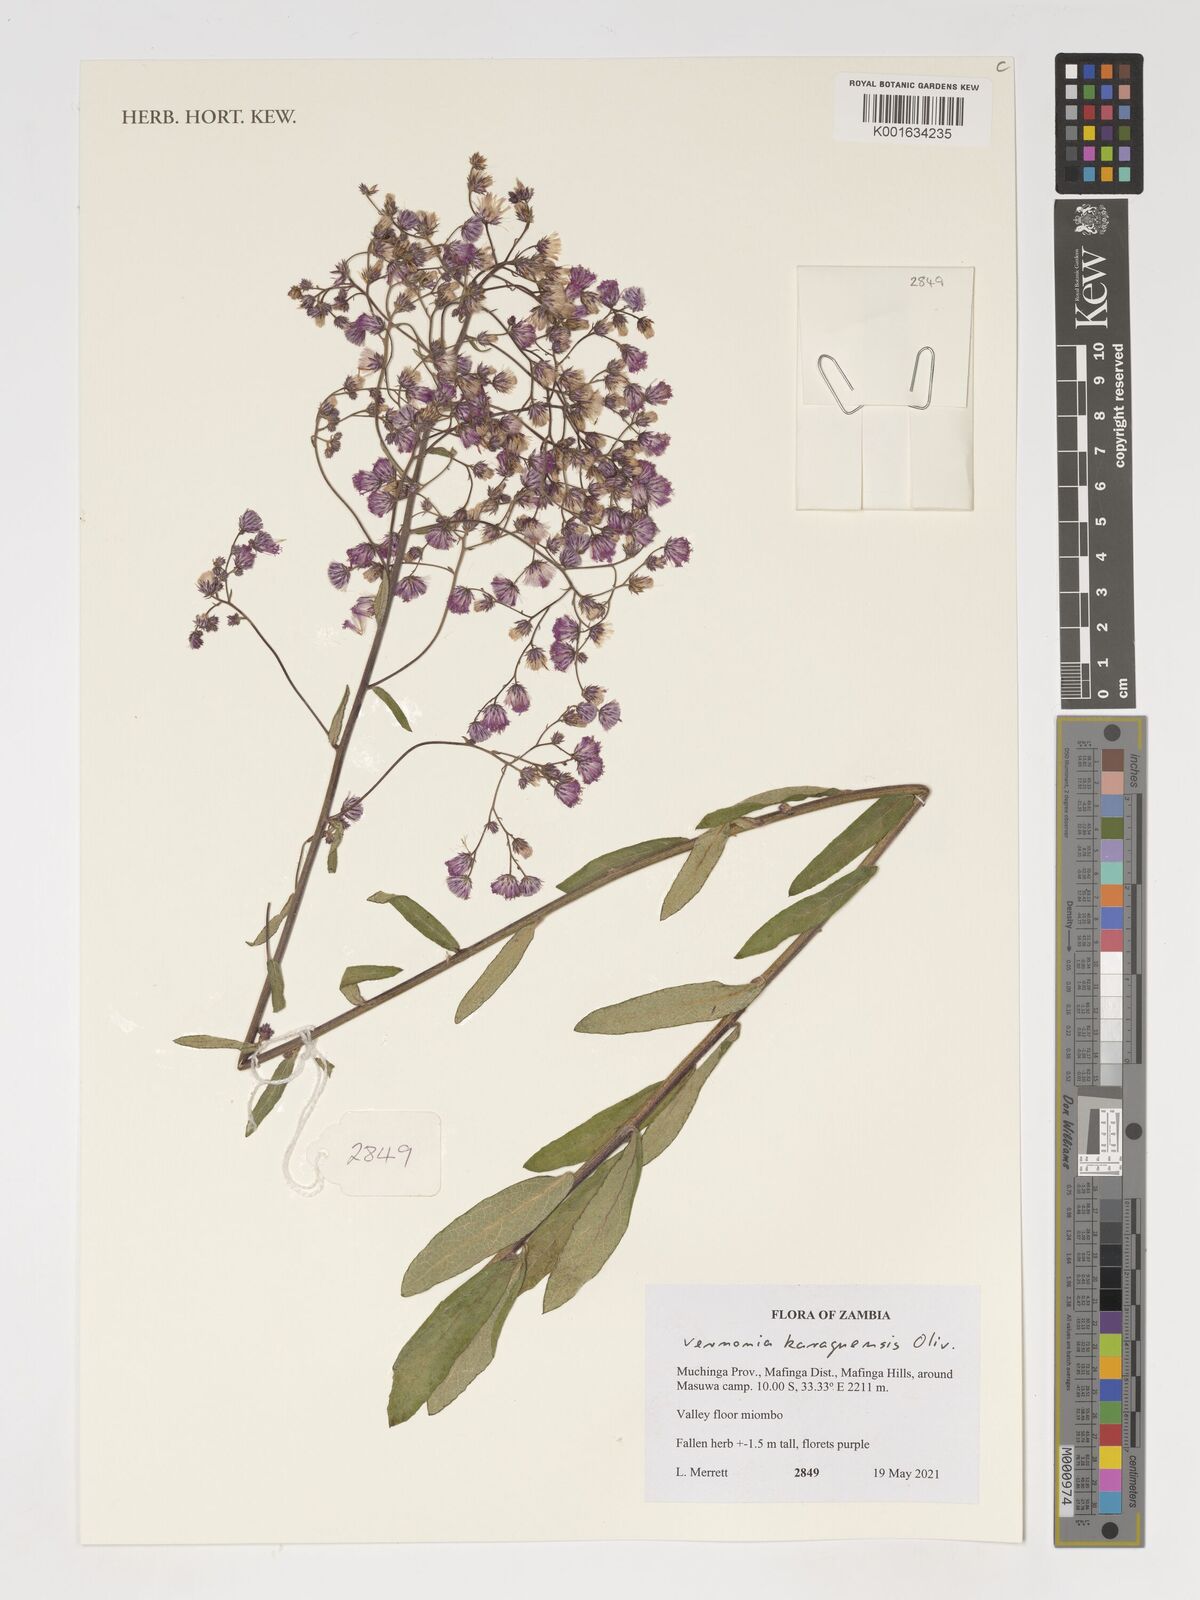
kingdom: Plantae
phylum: Tracheophyta
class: Magnoliopsida
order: Asterales
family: Asteraceae
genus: Orbivestus
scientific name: Orbivestus karaguensis
